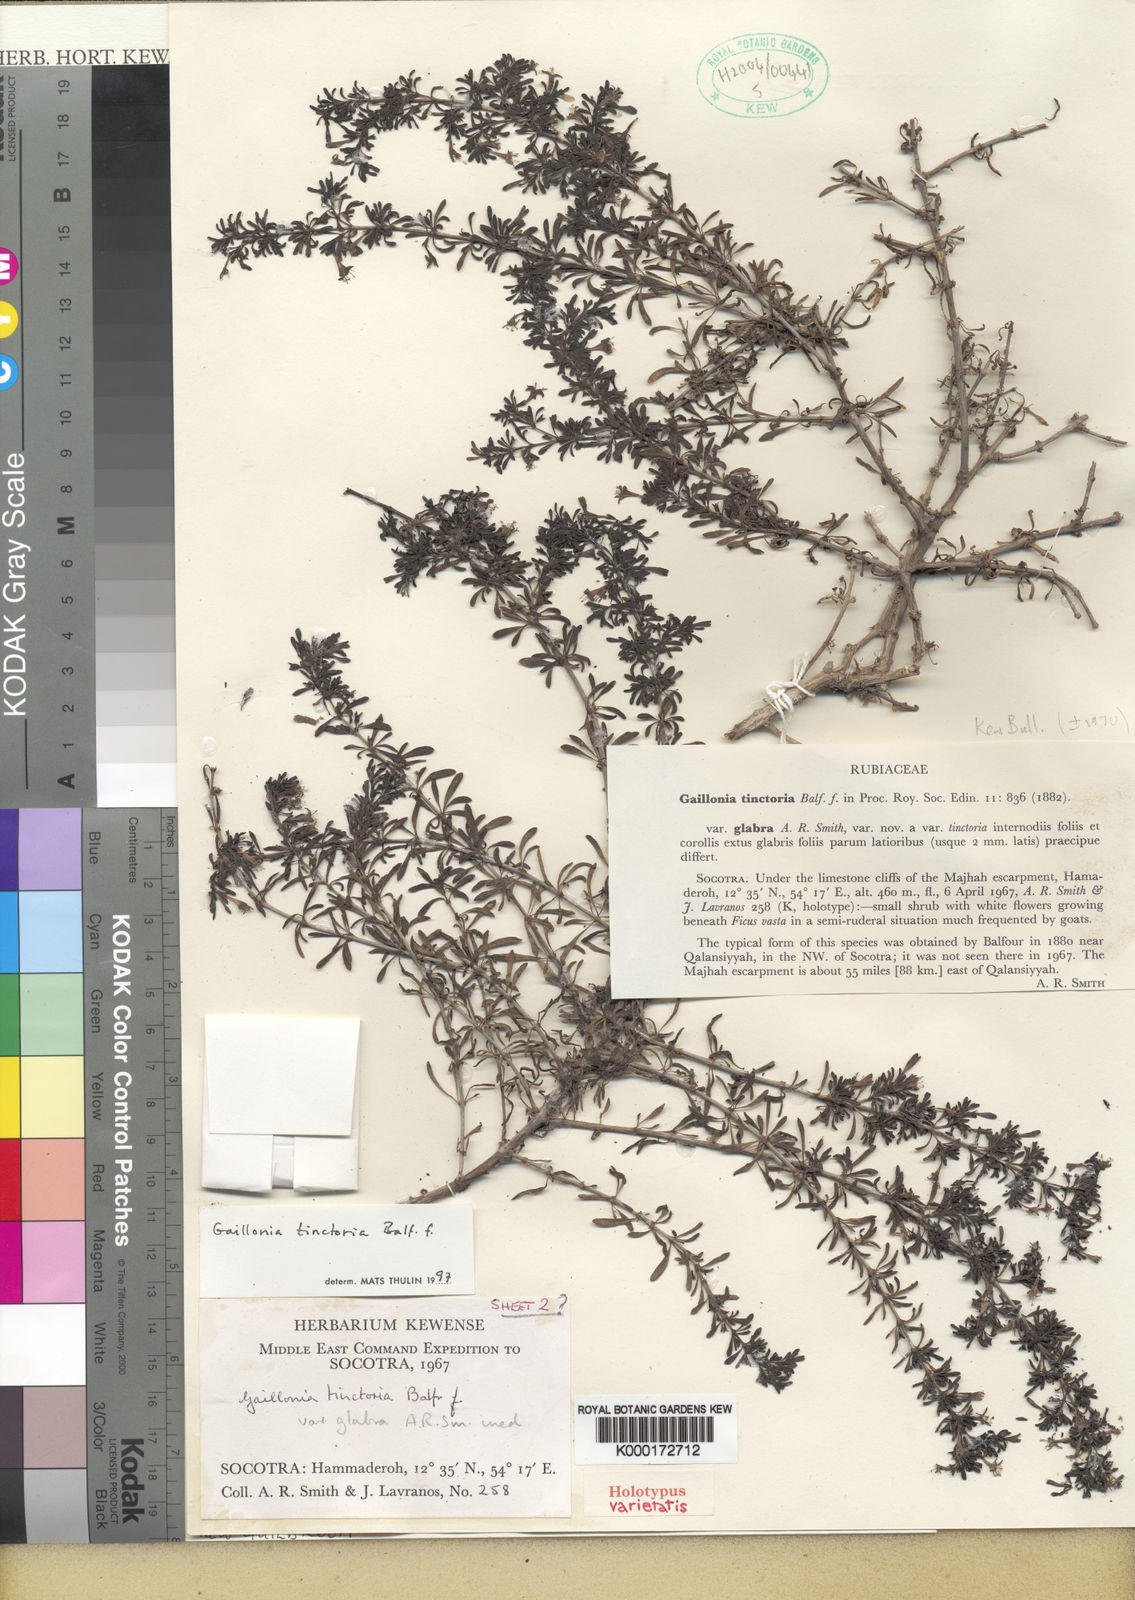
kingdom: Plantae
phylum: Tracheophyta
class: Magnoliopsida
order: Gentianales
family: Rubiaceae
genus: Plocama
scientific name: Plocama tinctoria
